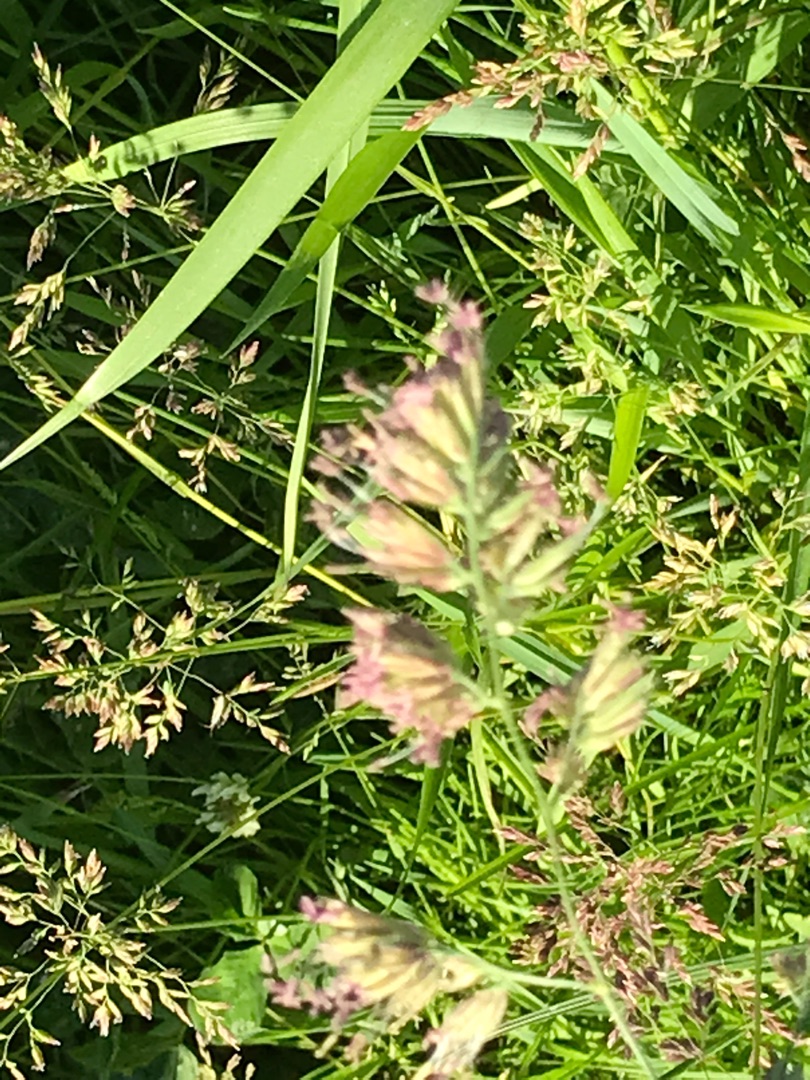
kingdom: Plantae
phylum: Tracheophyta
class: Liliopsida
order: Poales
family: Poaceae
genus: Dactylis
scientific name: Dactylis glomerata
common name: Almindelig hundegræs
